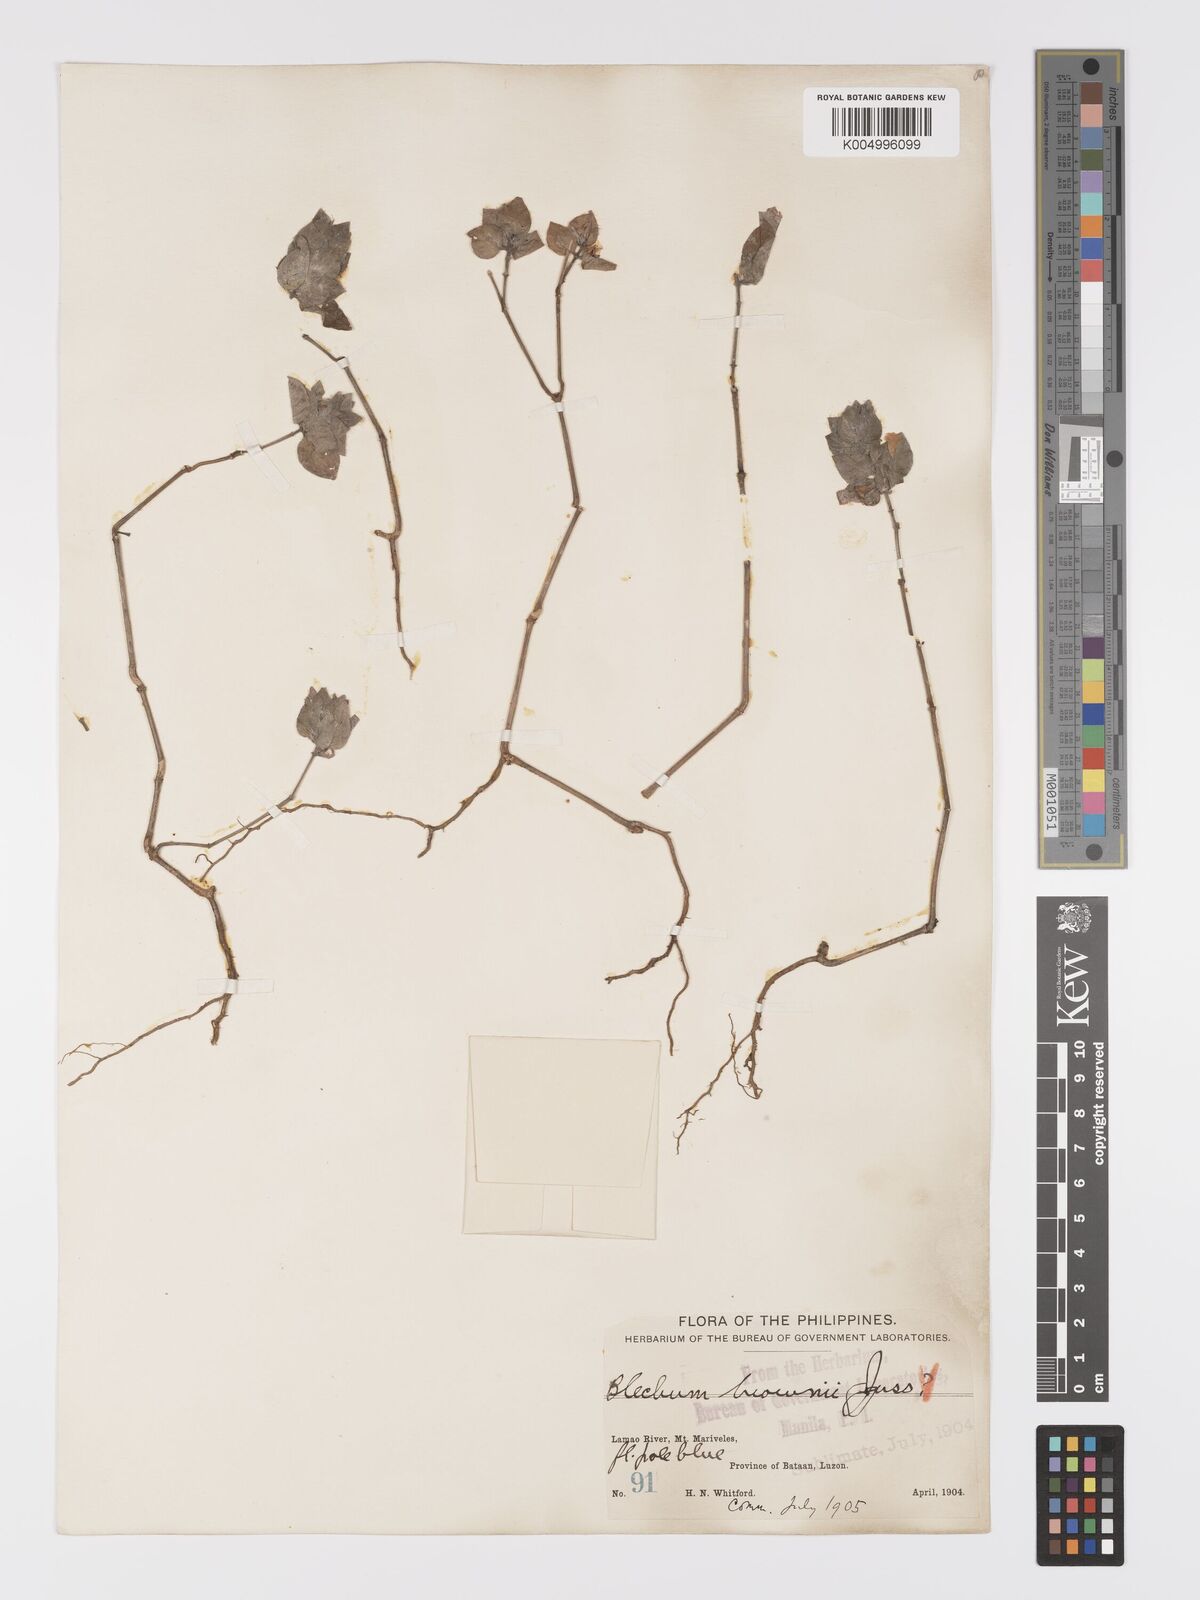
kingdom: Plantae
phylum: Tracheophyta
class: Magnoliopsida
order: Lamiales
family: Acanthaceae
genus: Ruellia
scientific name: Ruellia blechum
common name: Browne's blechum
